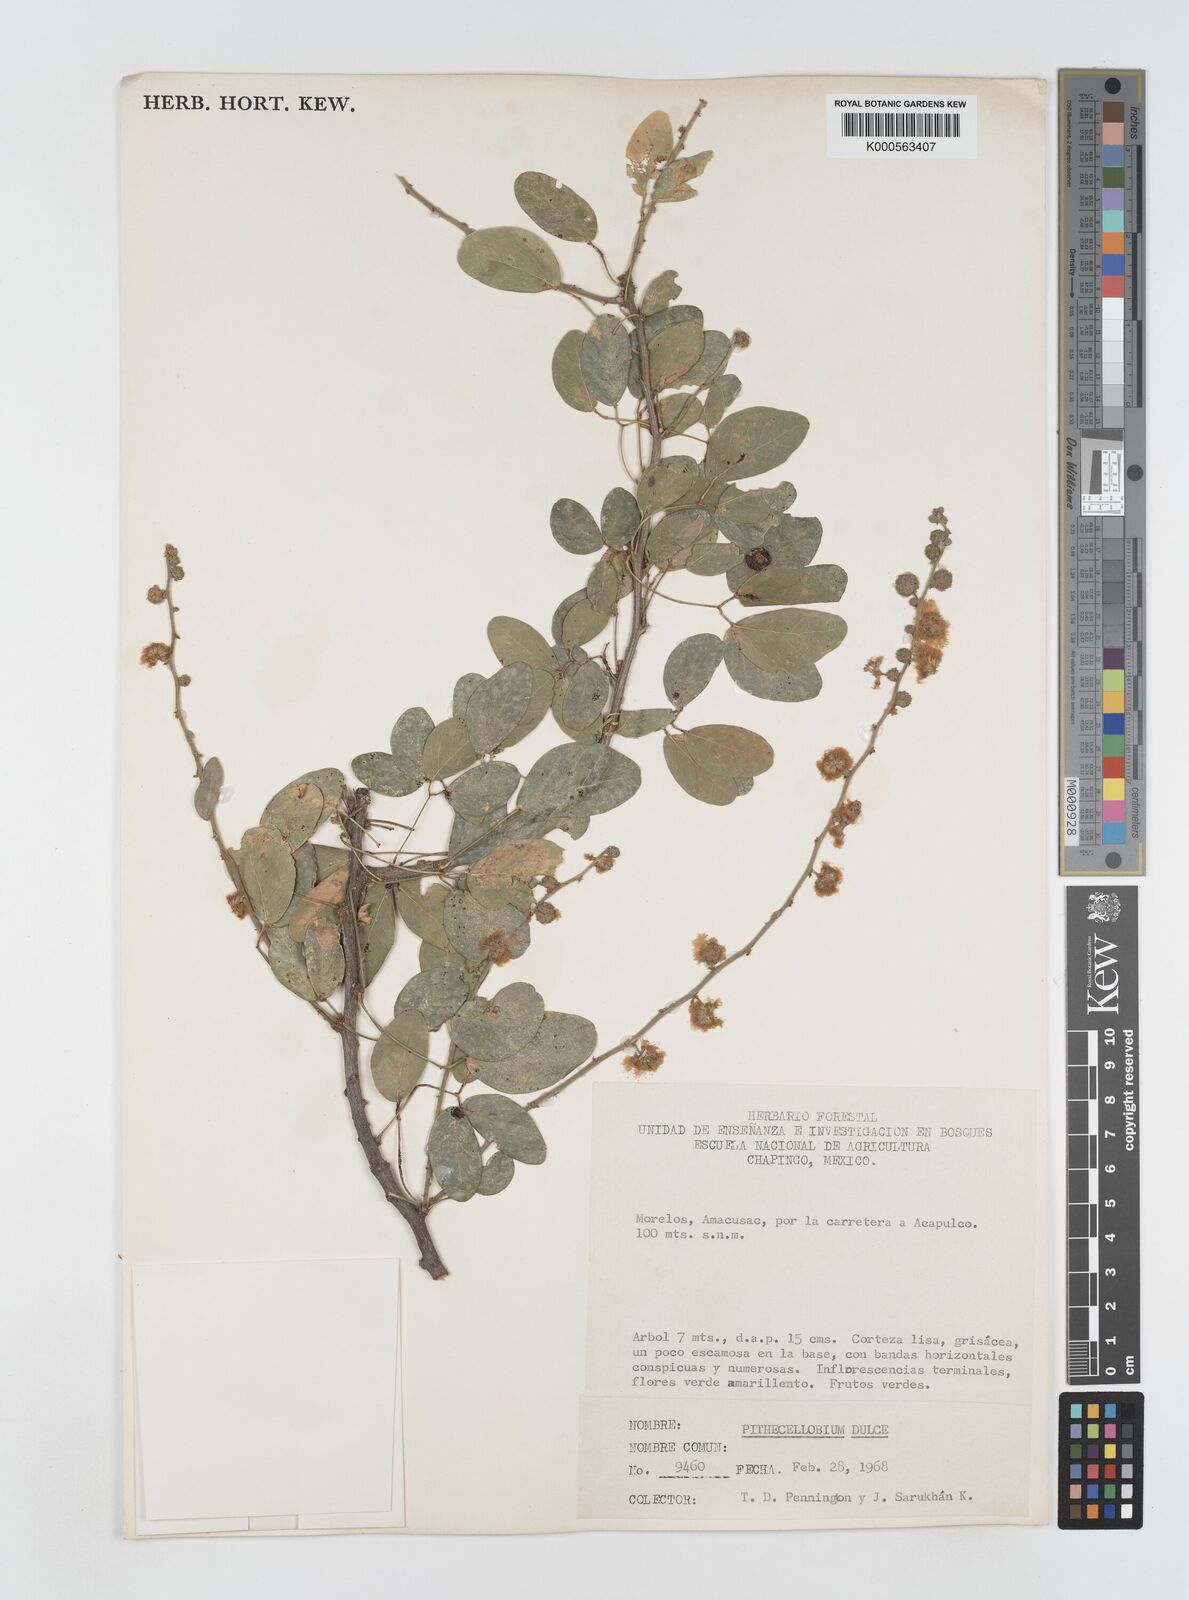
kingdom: Plantae
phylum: Tracheophyta
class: Magnoliopsida
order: Fabales
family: Fabaceae
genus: Pithecellobium
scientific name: Pithecellobium dulce
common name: Monkeypod
